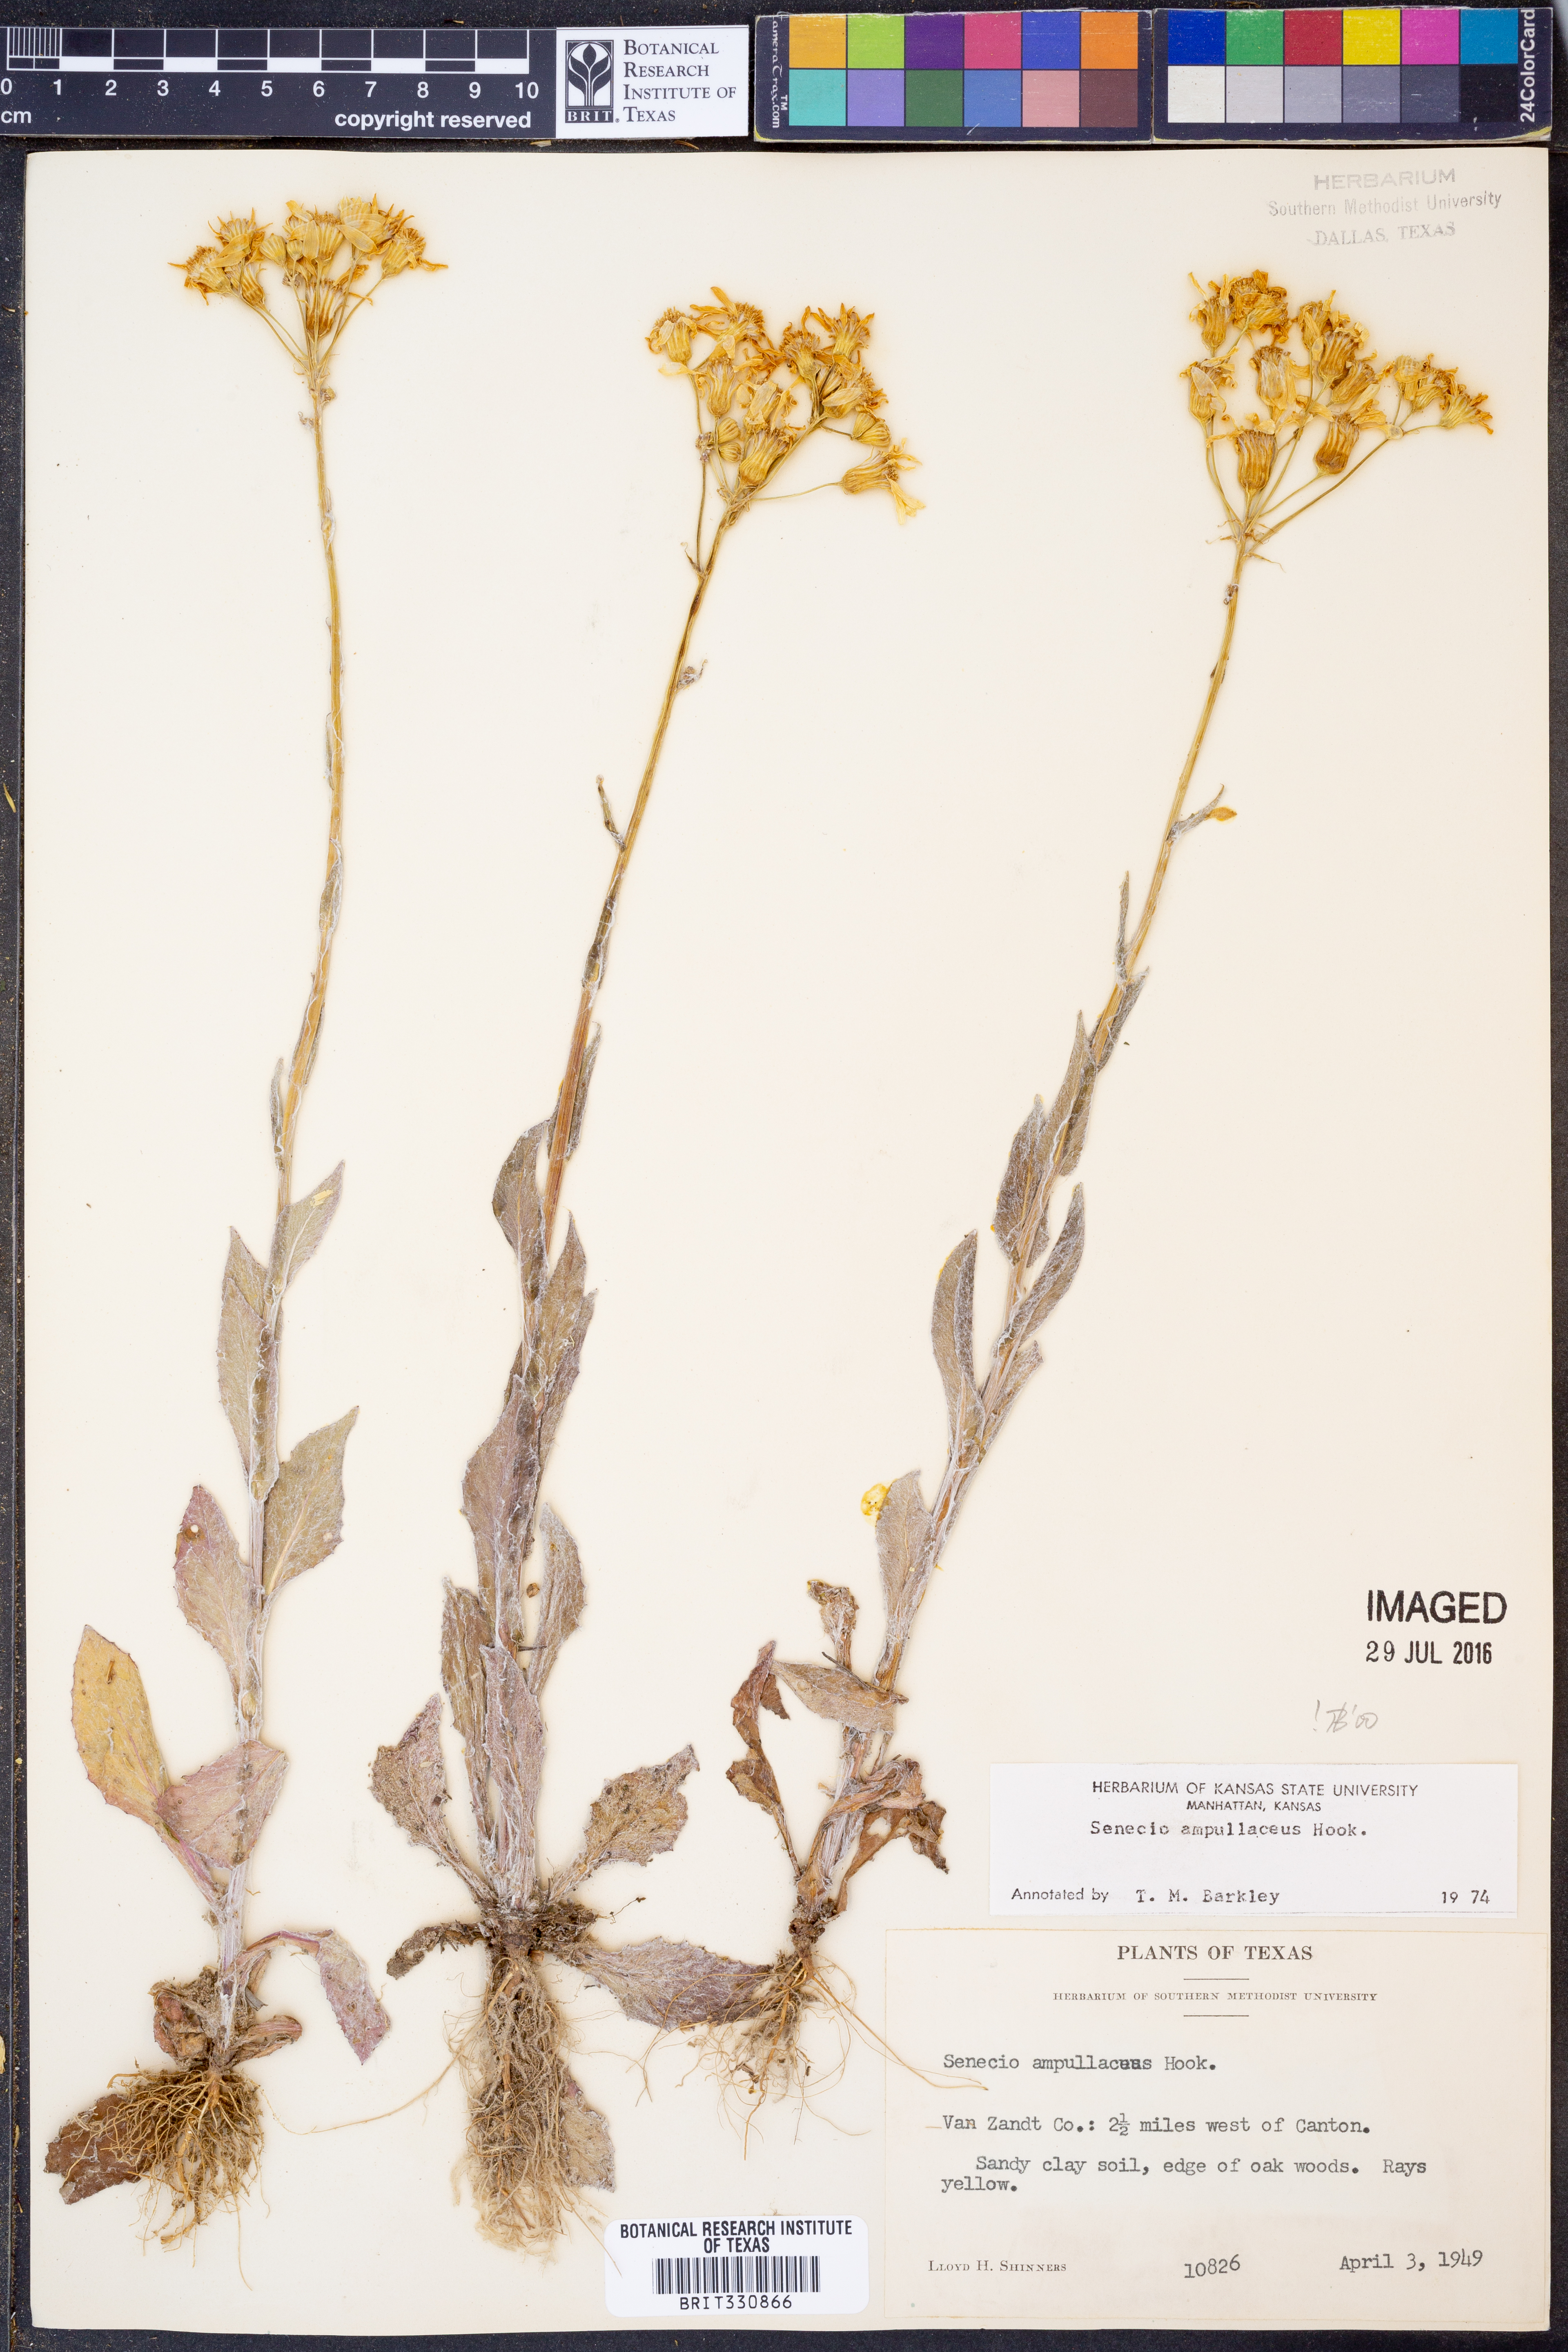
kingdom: Plantae
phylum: Tracheophyta
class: Magnoliopsida
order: Asterales
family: Asteraceae
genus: Senecio
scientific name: Senecio ampullaceus
